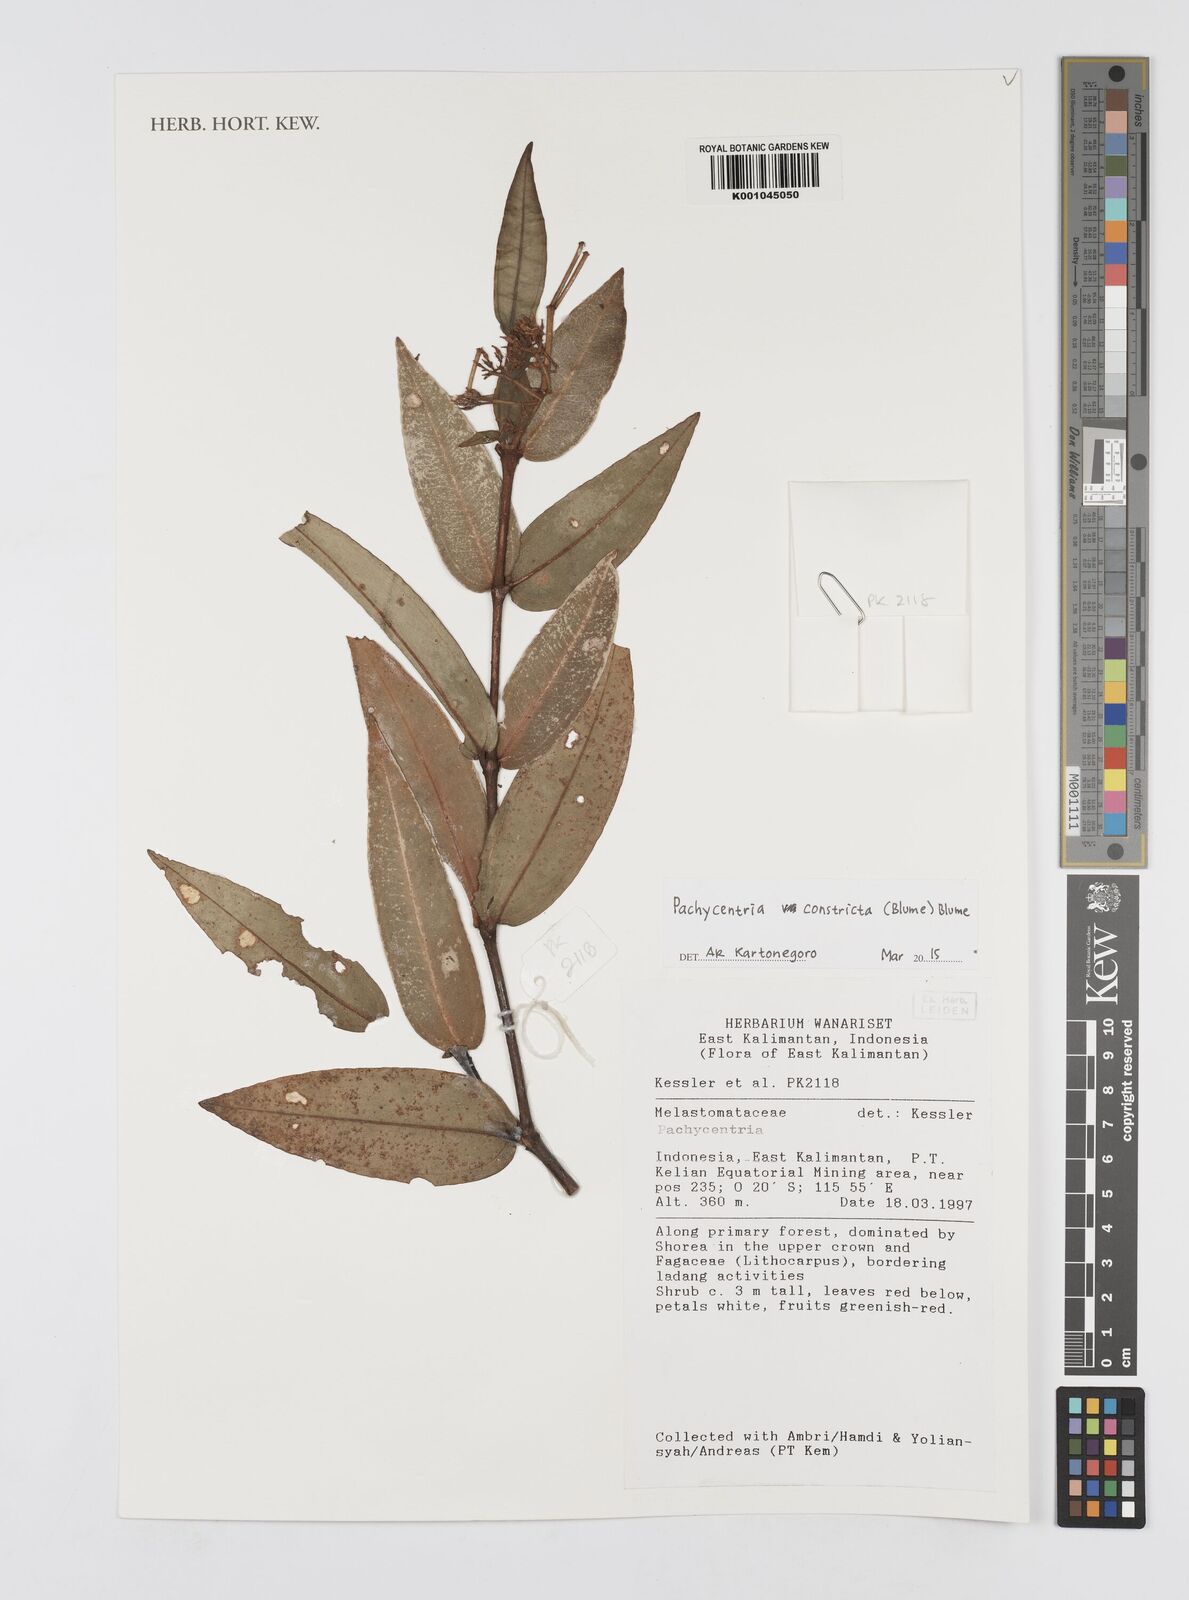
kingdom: Plantae
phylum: Tracheophyta
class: Magnoliopsida
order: Myrtales
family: Melastomataceae
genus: Pachycentria
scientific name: Pachycentria constricta
